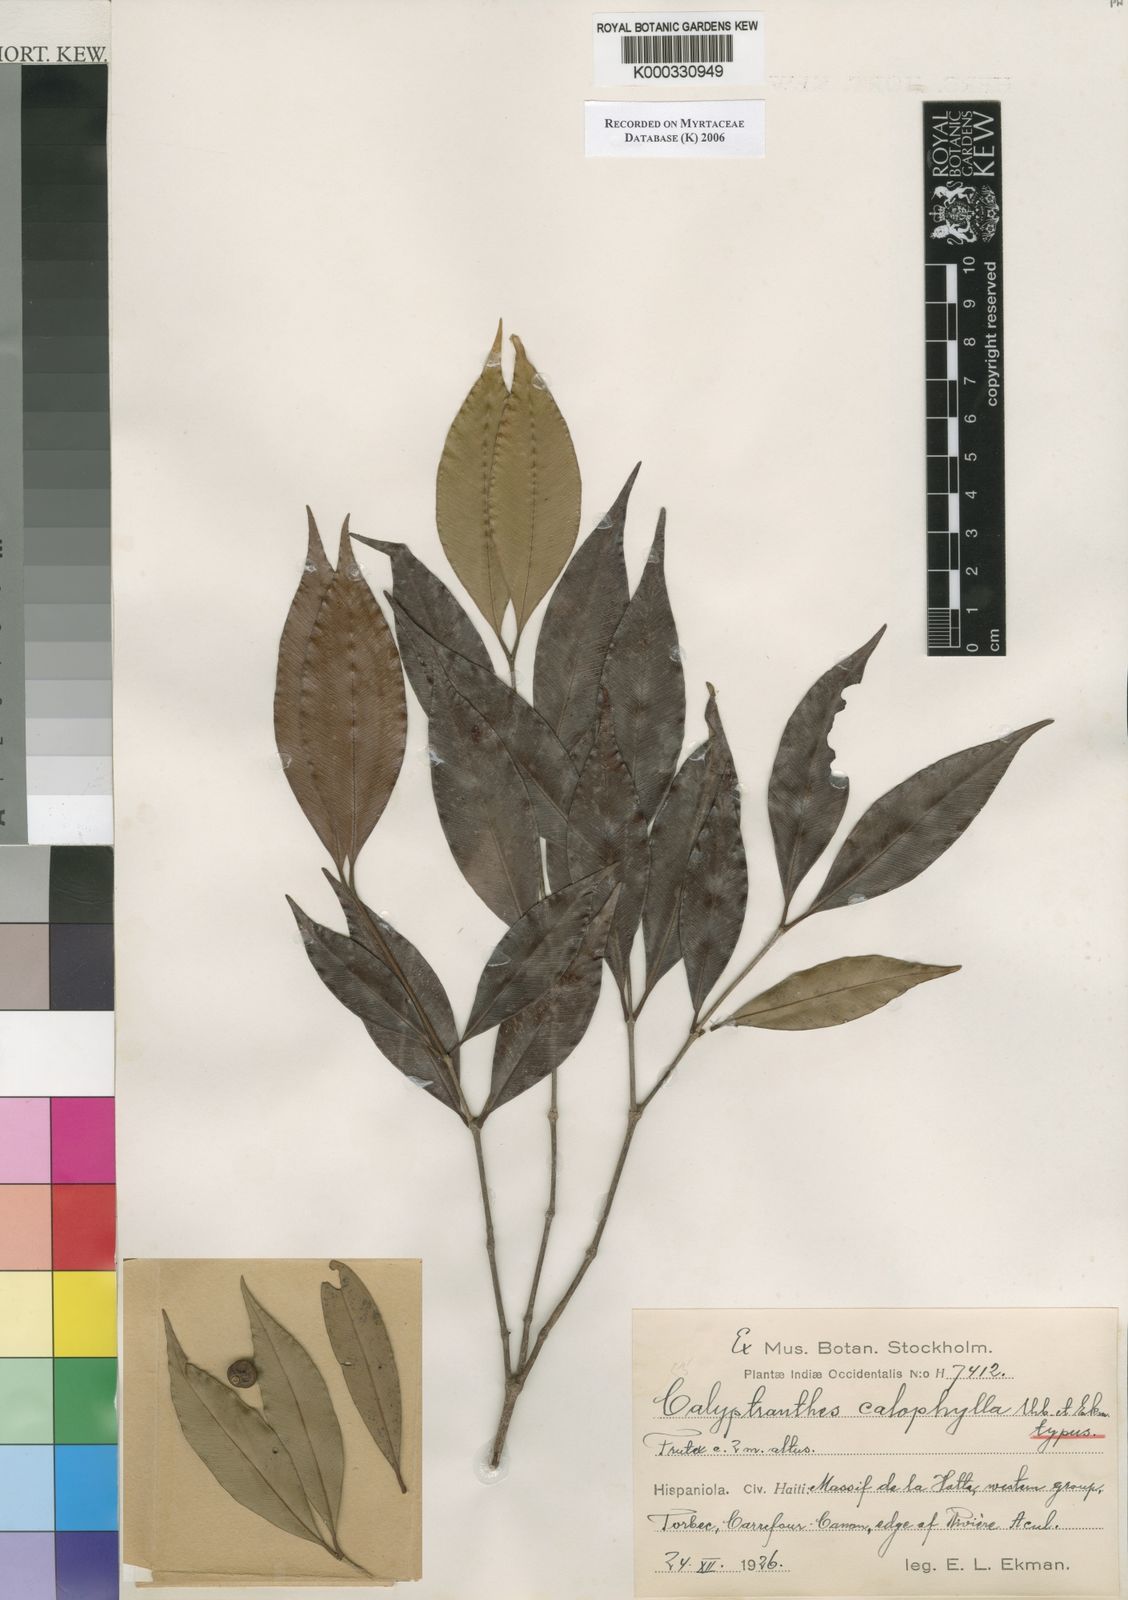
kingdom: Plantae
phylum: Tracheophyta
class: Magnoliopsida
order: Myrtales
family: Myrtaceae
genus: Myrcia
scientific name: Myrcia calophylla
